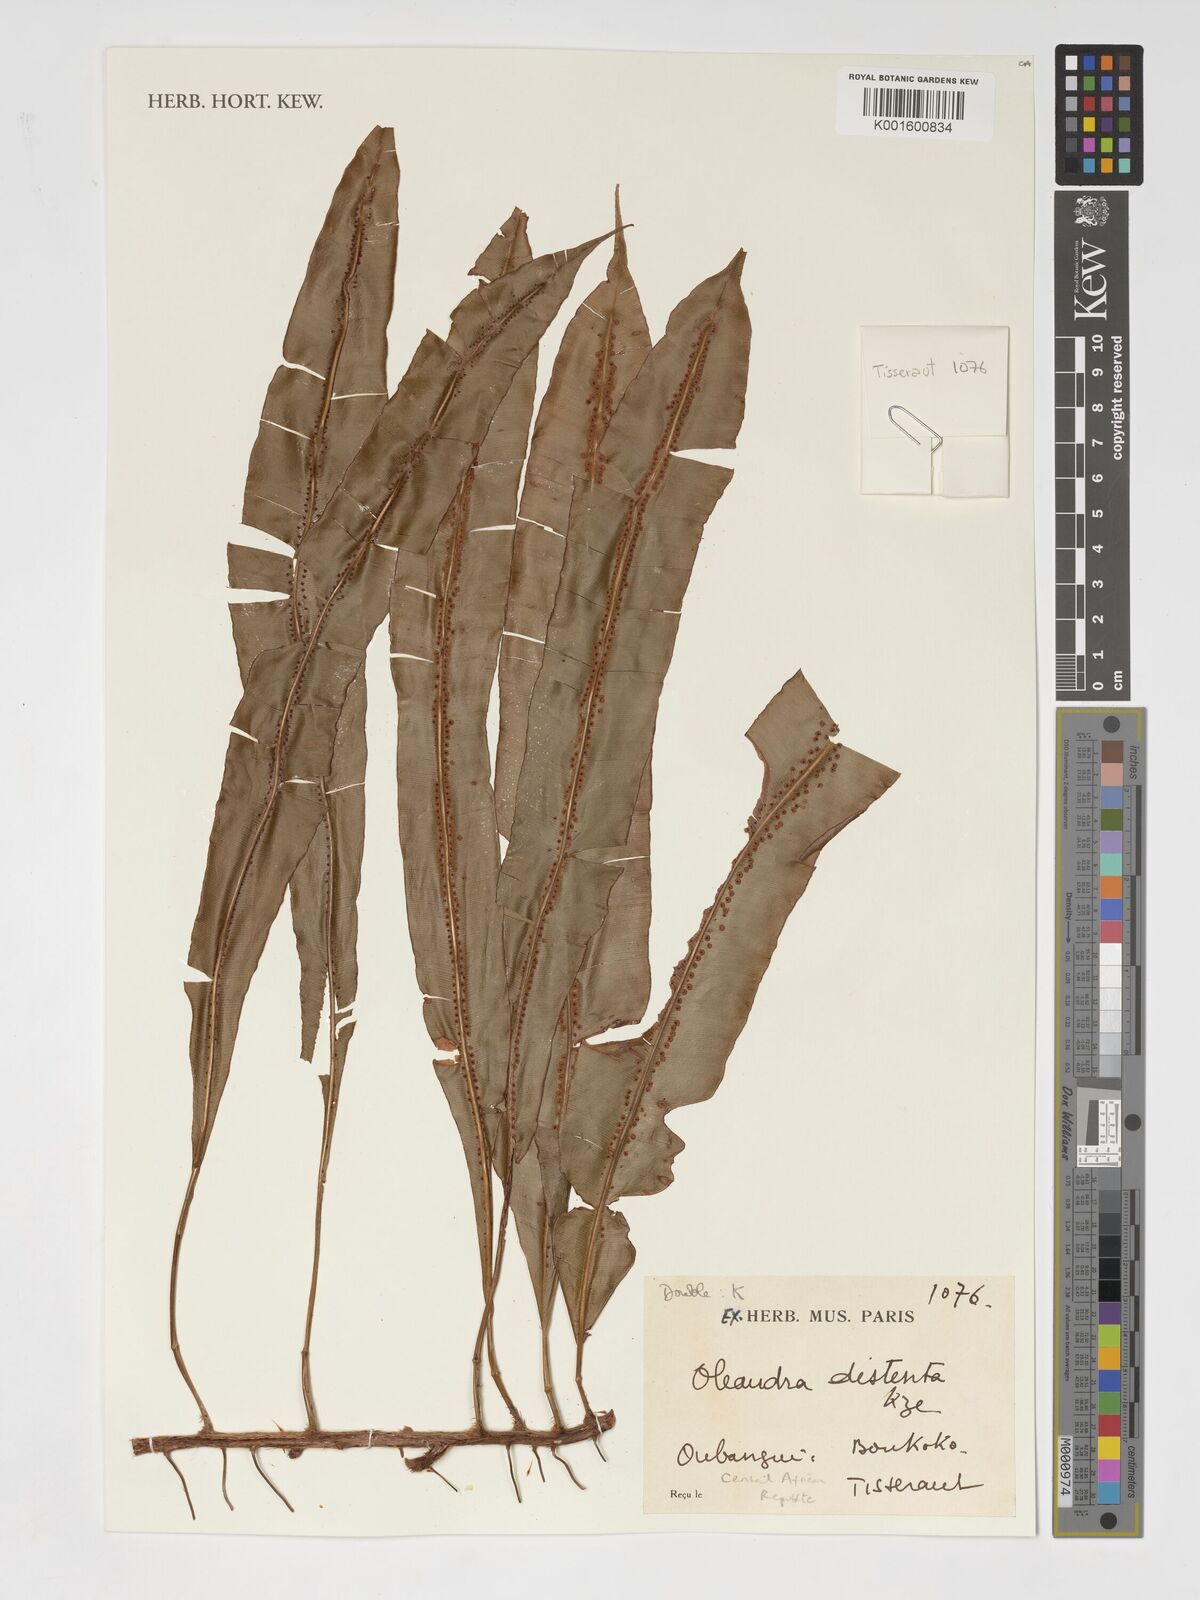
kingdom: Plantae
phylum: Tracheophyta
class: Polypodiopsida
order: Polypodiales
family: Oleandraceae
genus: Oleandra
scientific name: Oleandra distenta
